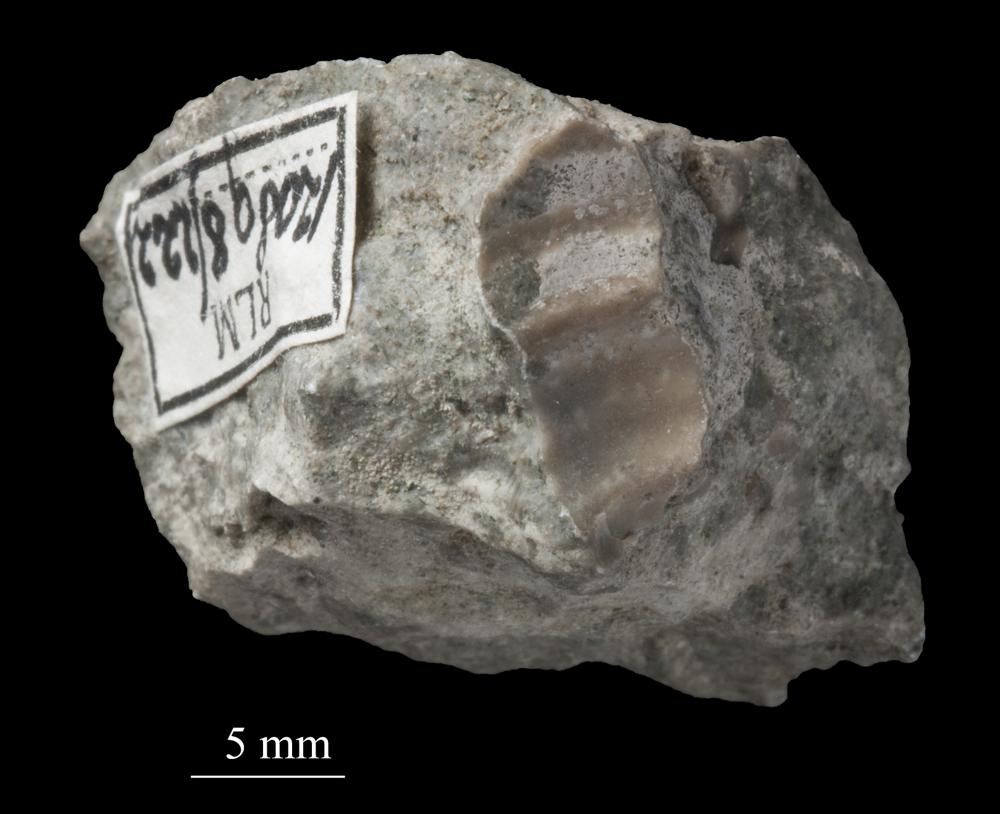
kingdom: Animalia
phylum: Mollusca
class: Gastropoda
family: Lophospiridae
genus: Proturritella
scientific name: Proturritella Turbinites bicarinatus
